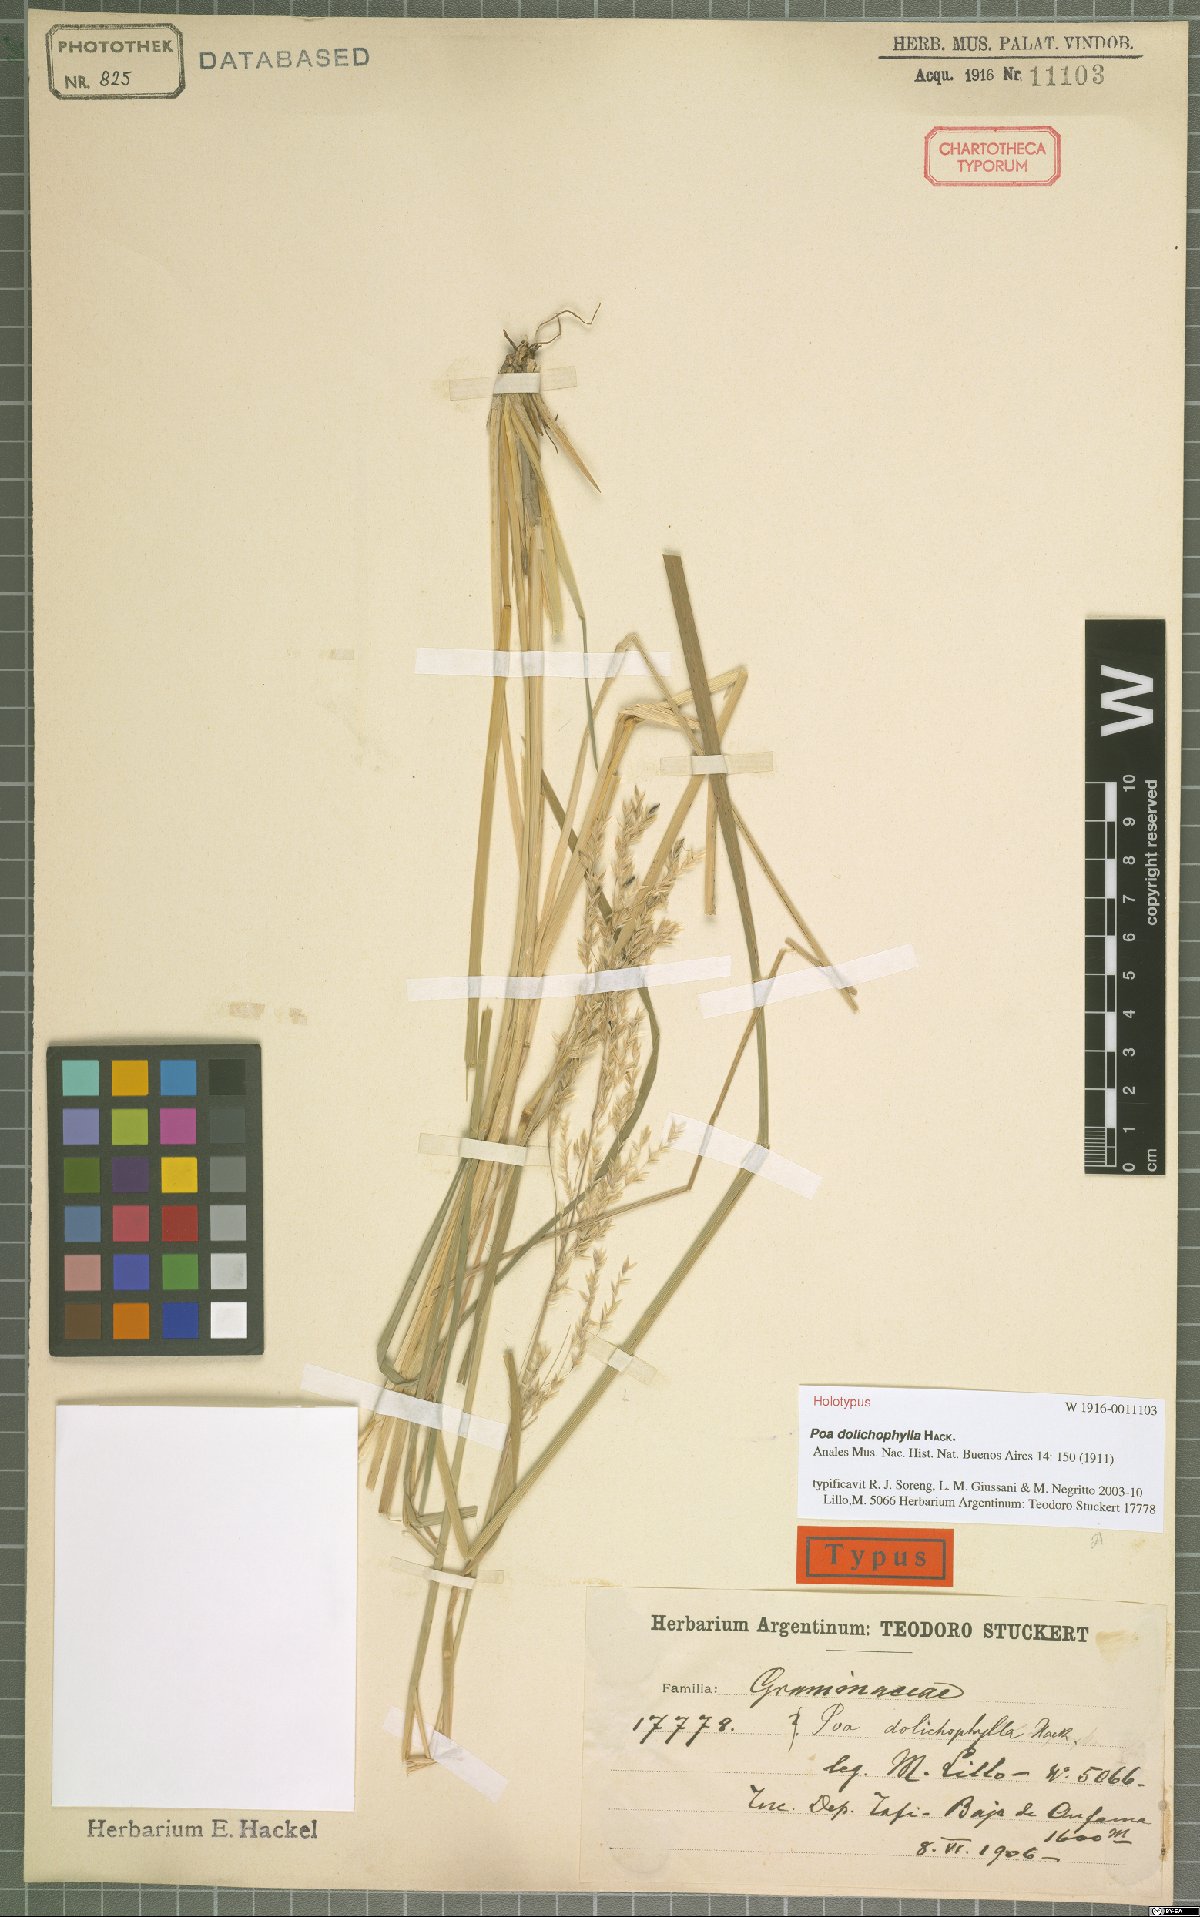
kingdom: Plantae
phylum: Tracheophyta
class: Liliopsida
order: Poales
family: Poaceae
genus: Poa
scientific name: Poa dolichophylla
